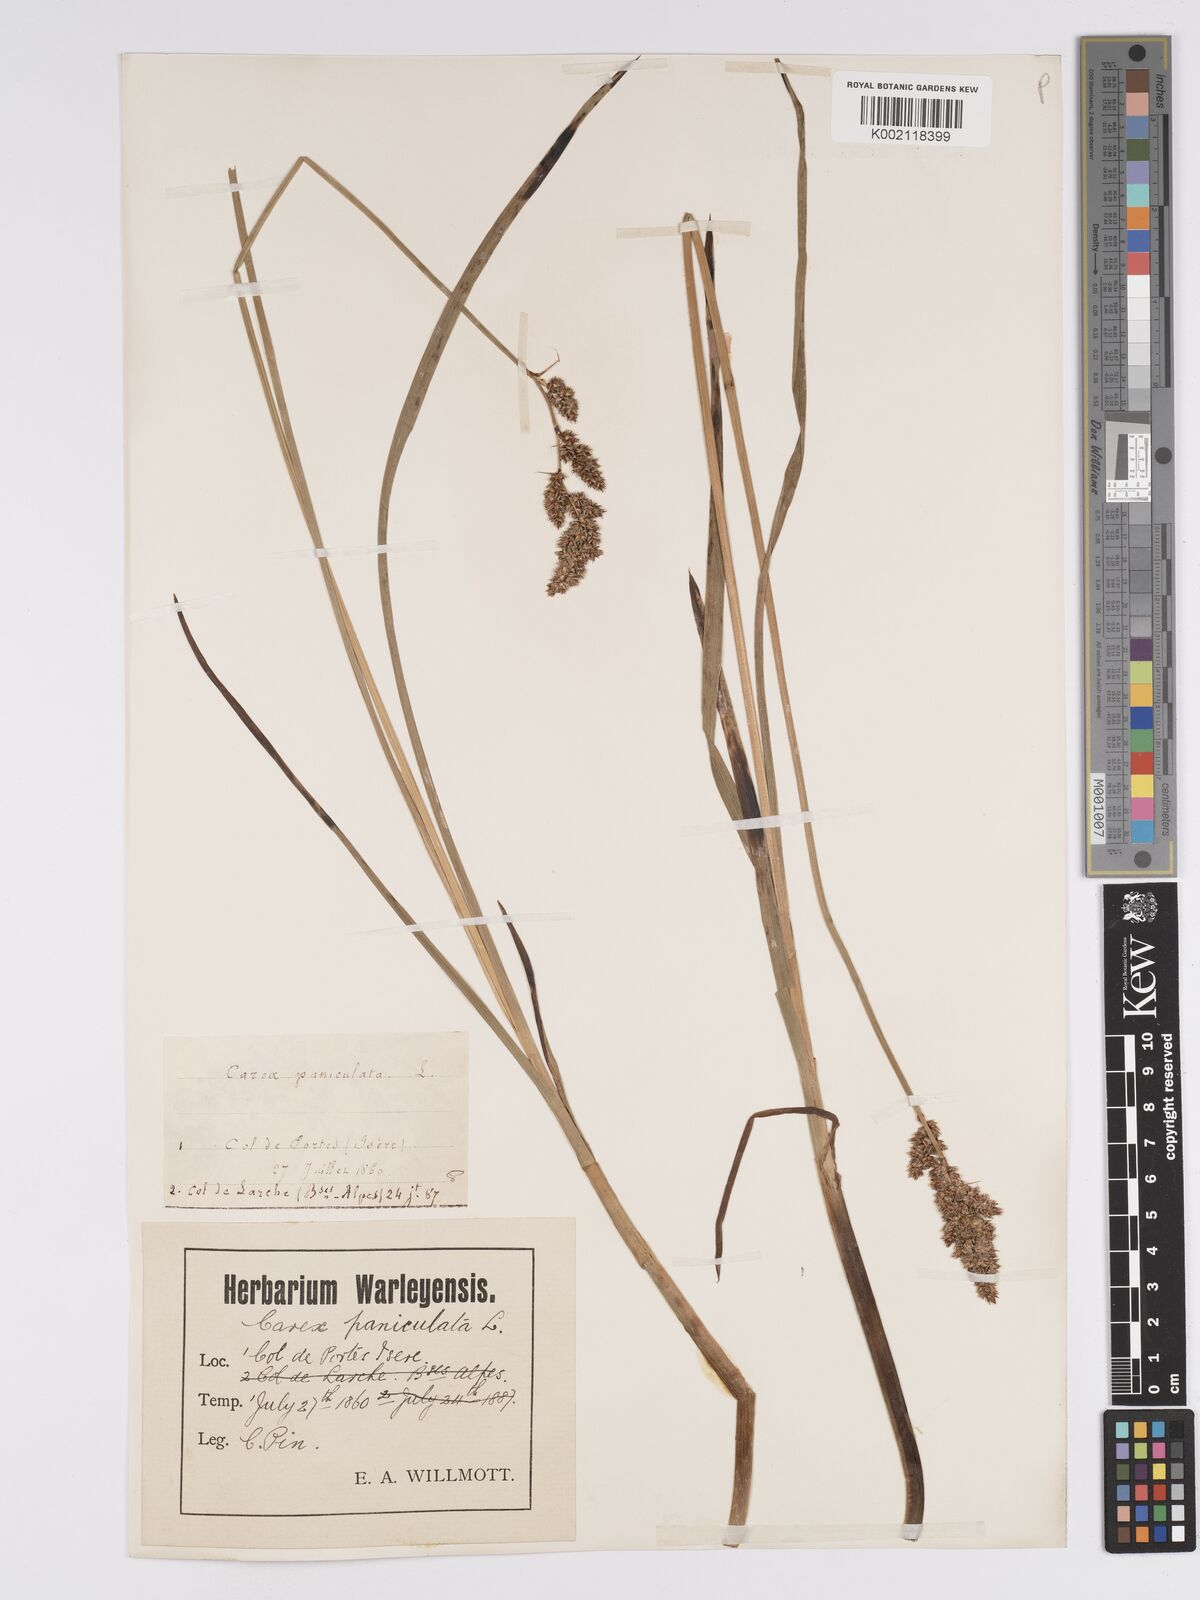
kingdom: Plantae
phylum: Tracheophyta
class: Liliopsida
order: Poales
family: Cyperaceae
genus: Carex
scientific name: Carex paniculata
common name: Greater tussock-sedge
